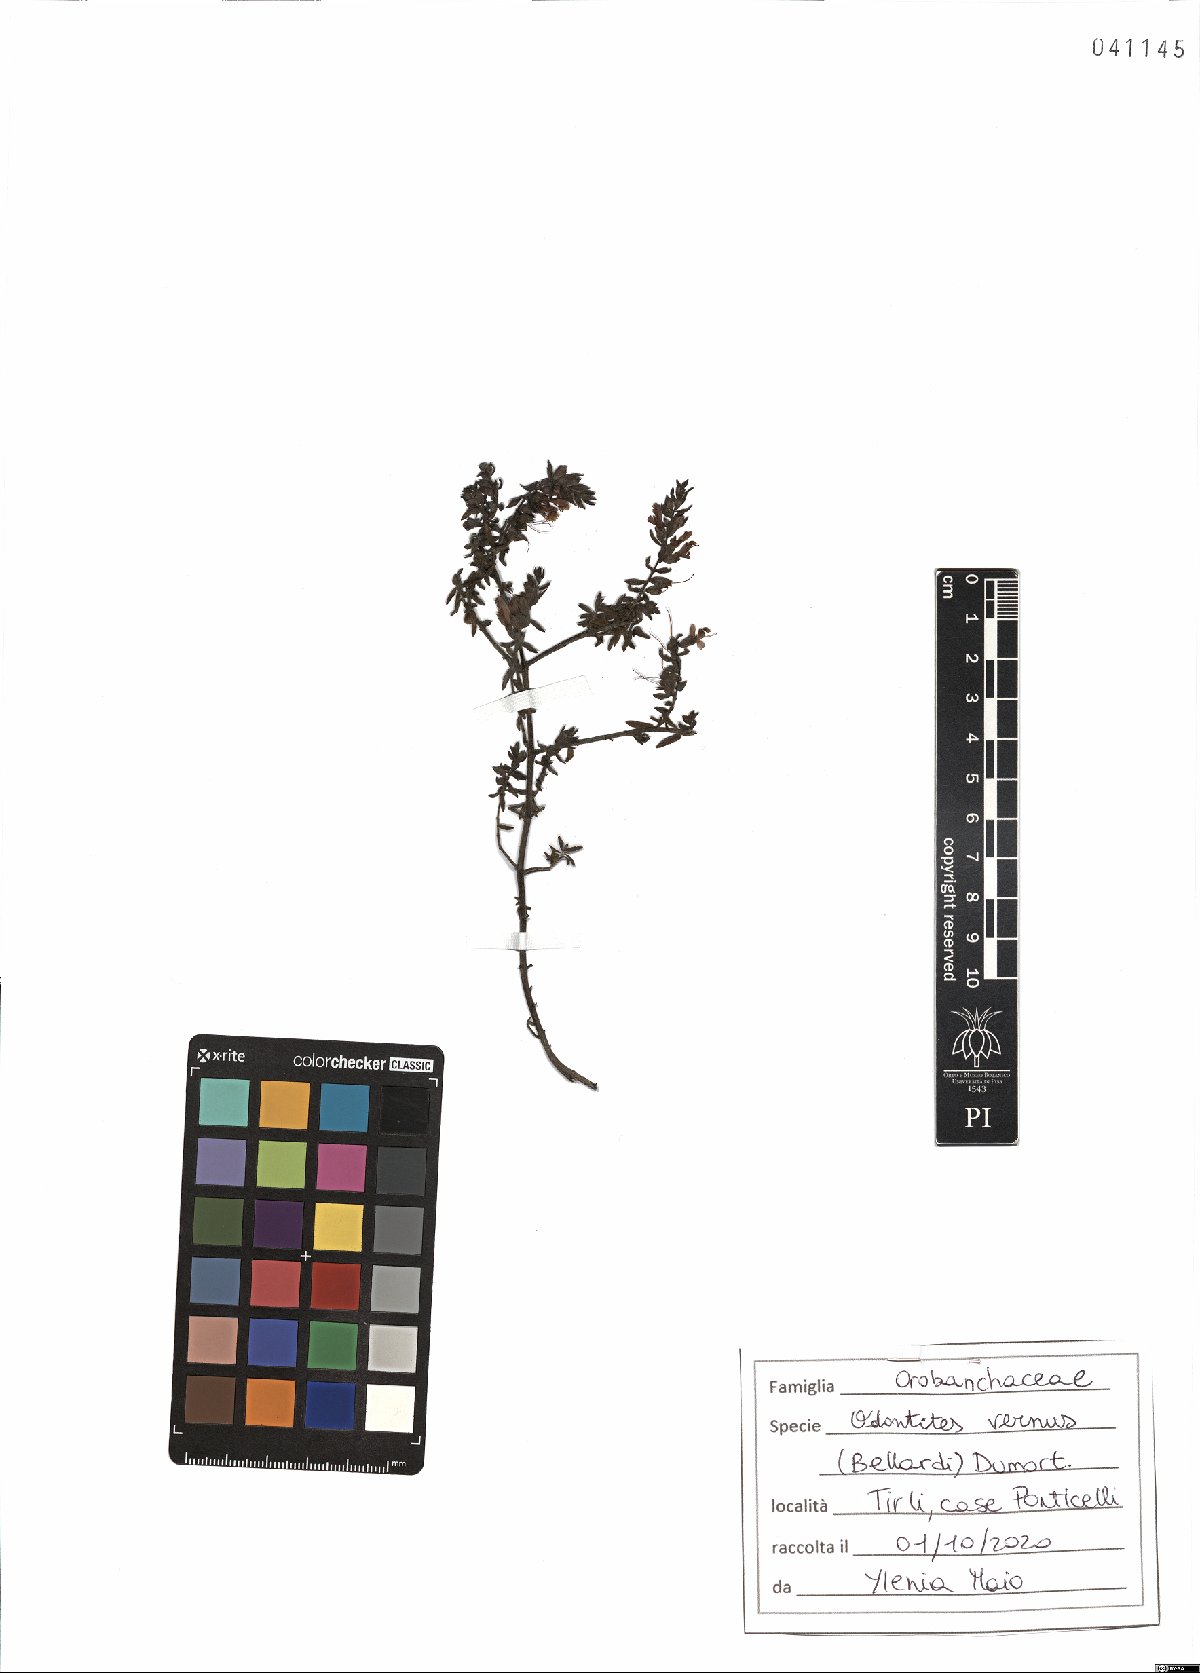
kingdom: Plantae
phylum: Tracheophyta
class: Magnoliopsida
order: Lamiales
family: Orobanchaceae
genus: Odontites
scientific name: Odontites vernus
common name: Red bartsia
